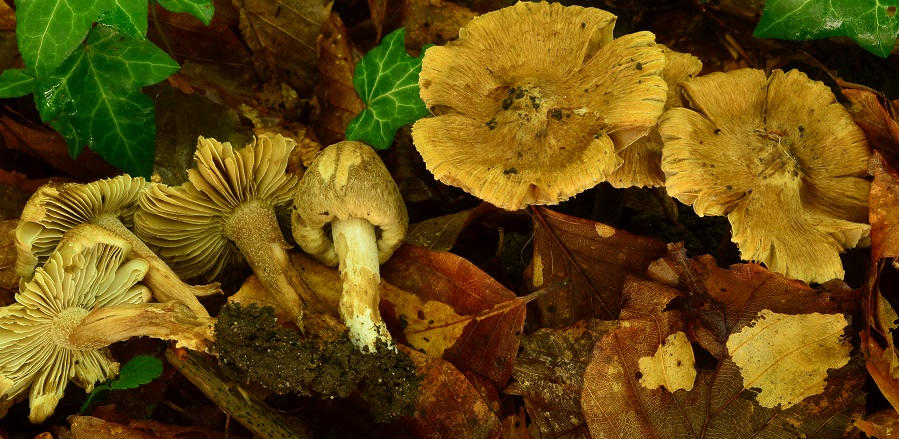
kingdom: Fungi
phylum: Basidiomycota
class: Agaricomycetes
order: Agaricales
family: Inocybaceae
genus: Pseudosperma
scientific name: Pseudosperma
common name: trævlhat
